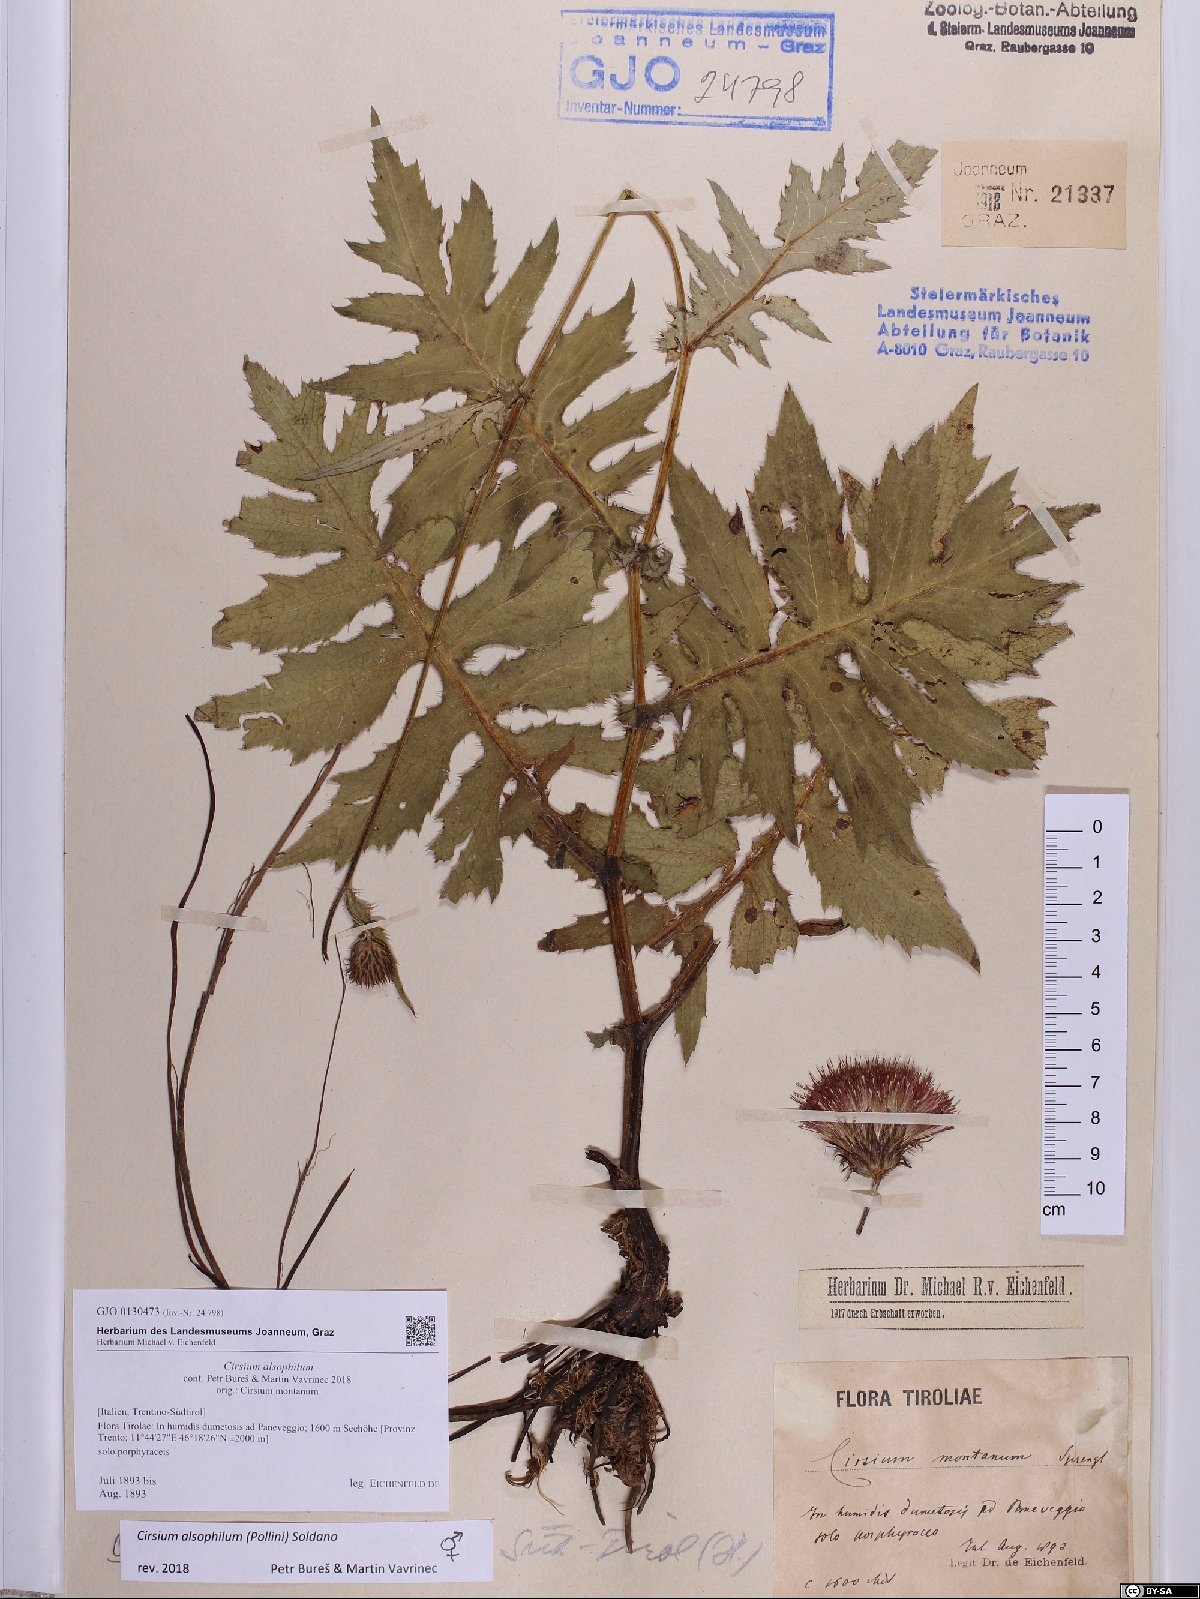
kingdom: Plantae
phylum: Tracheophyta
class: Magnoliopsida
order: Asterales
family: Asteraceae
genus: Cirsium
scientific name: Cirsium alsophilum
